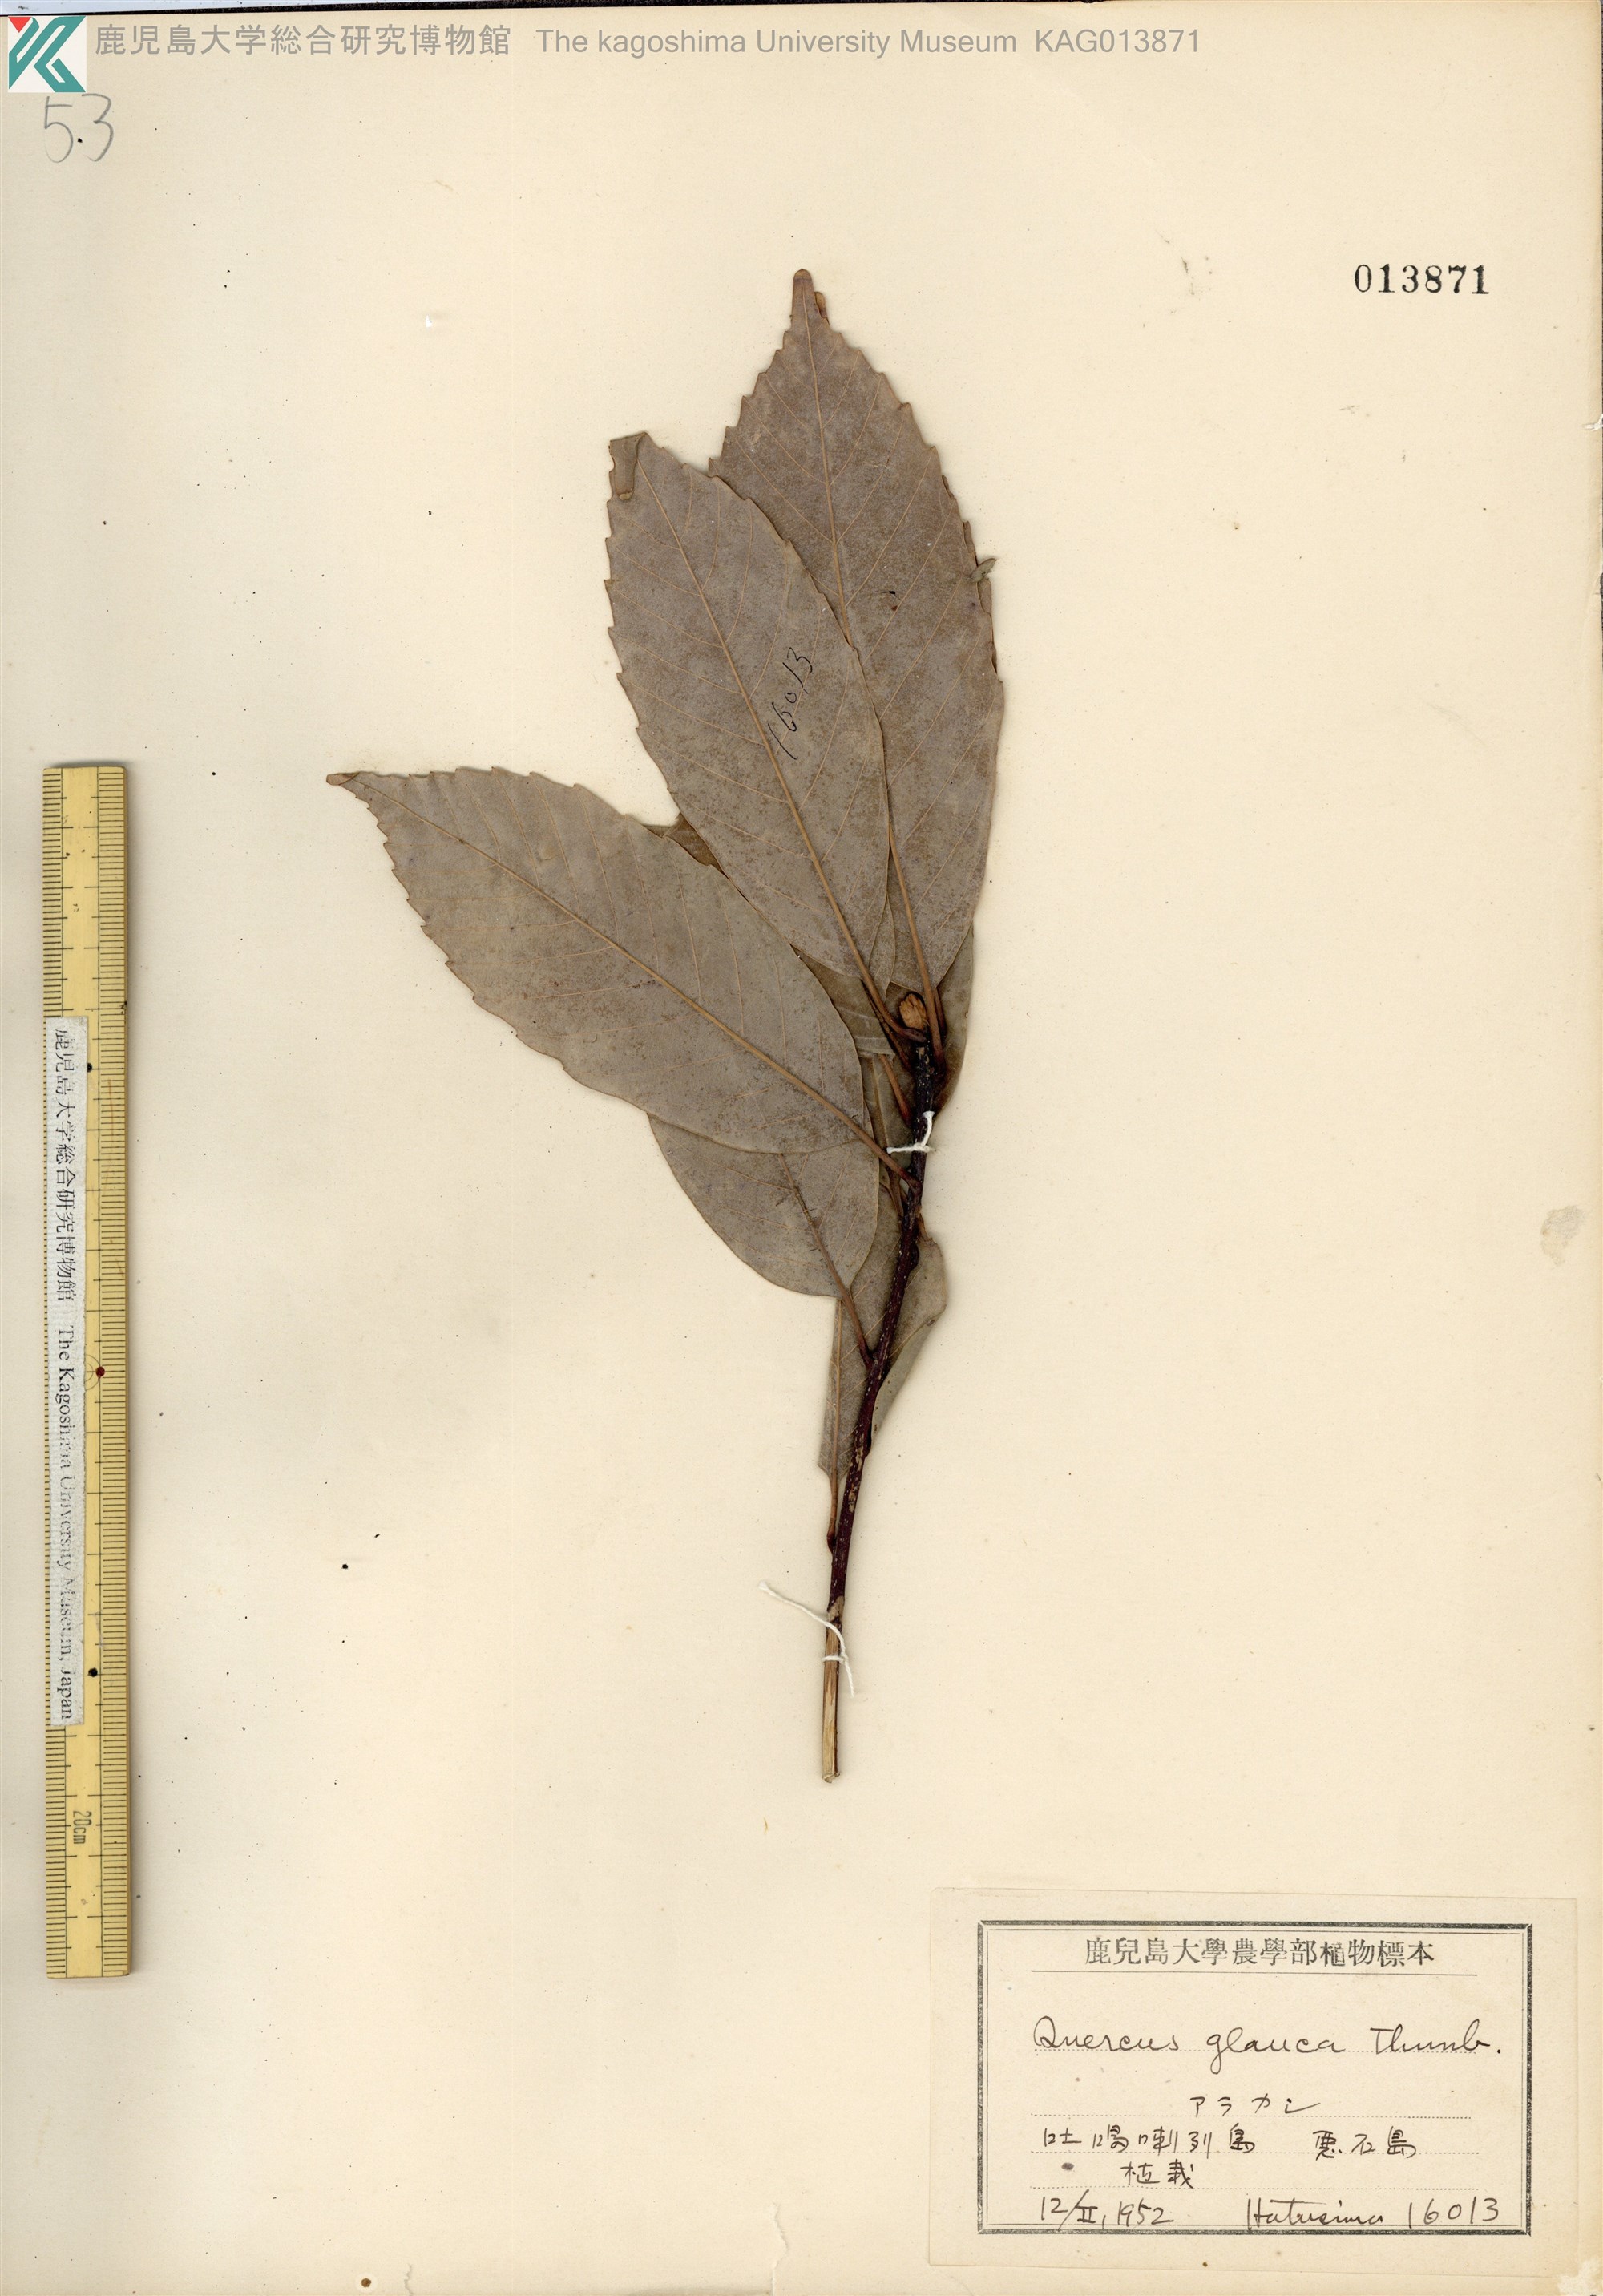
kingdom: Plantae
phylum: Tracheophyta
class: Magnoliopsida
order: Fagales
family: Fagaceae
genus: Quercus
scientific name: Quercus glauca
